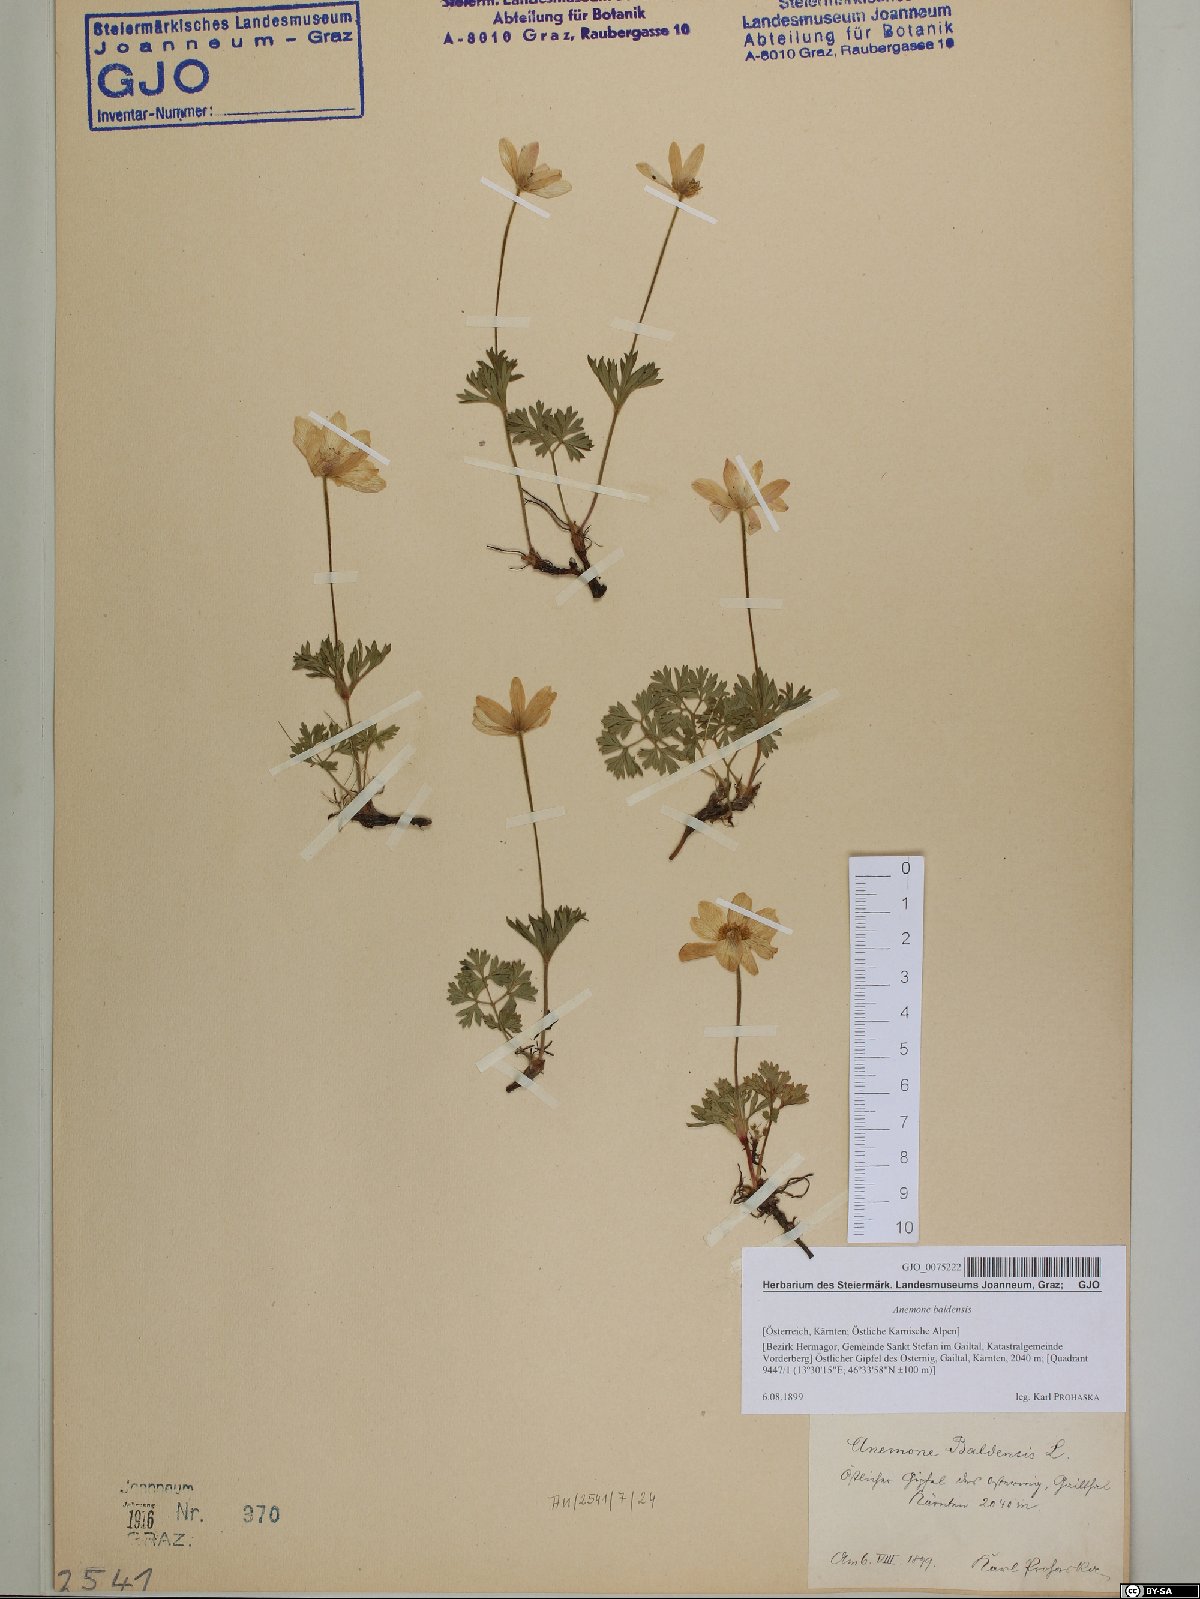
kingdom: Plantae
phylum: Tracheophyta
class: Magnoliopsida
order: Ranunculales
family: Ranunculaceae
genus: Anemone
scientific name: Anemone baldensis
